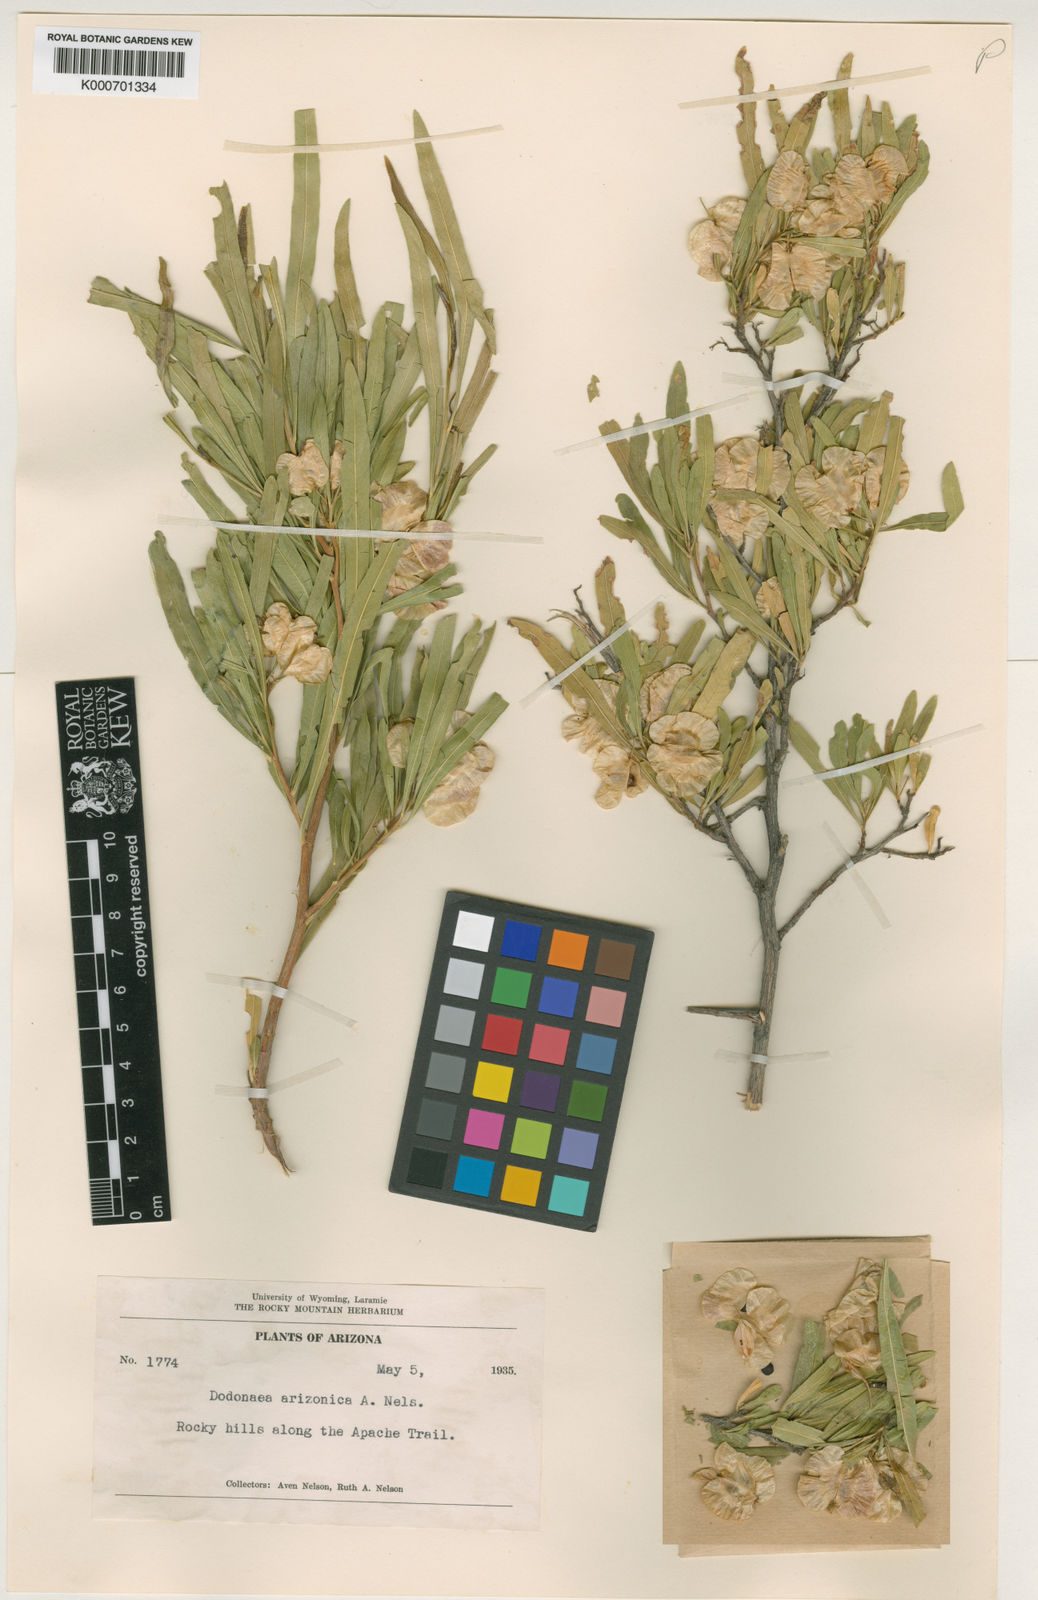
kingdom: Plantae
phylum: Tracheophyta
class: Magnoliopsida
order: Sapindales
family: Sapindaceae
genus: Dodonaea
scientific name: Dodonaea viscosa
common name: Hopbush
